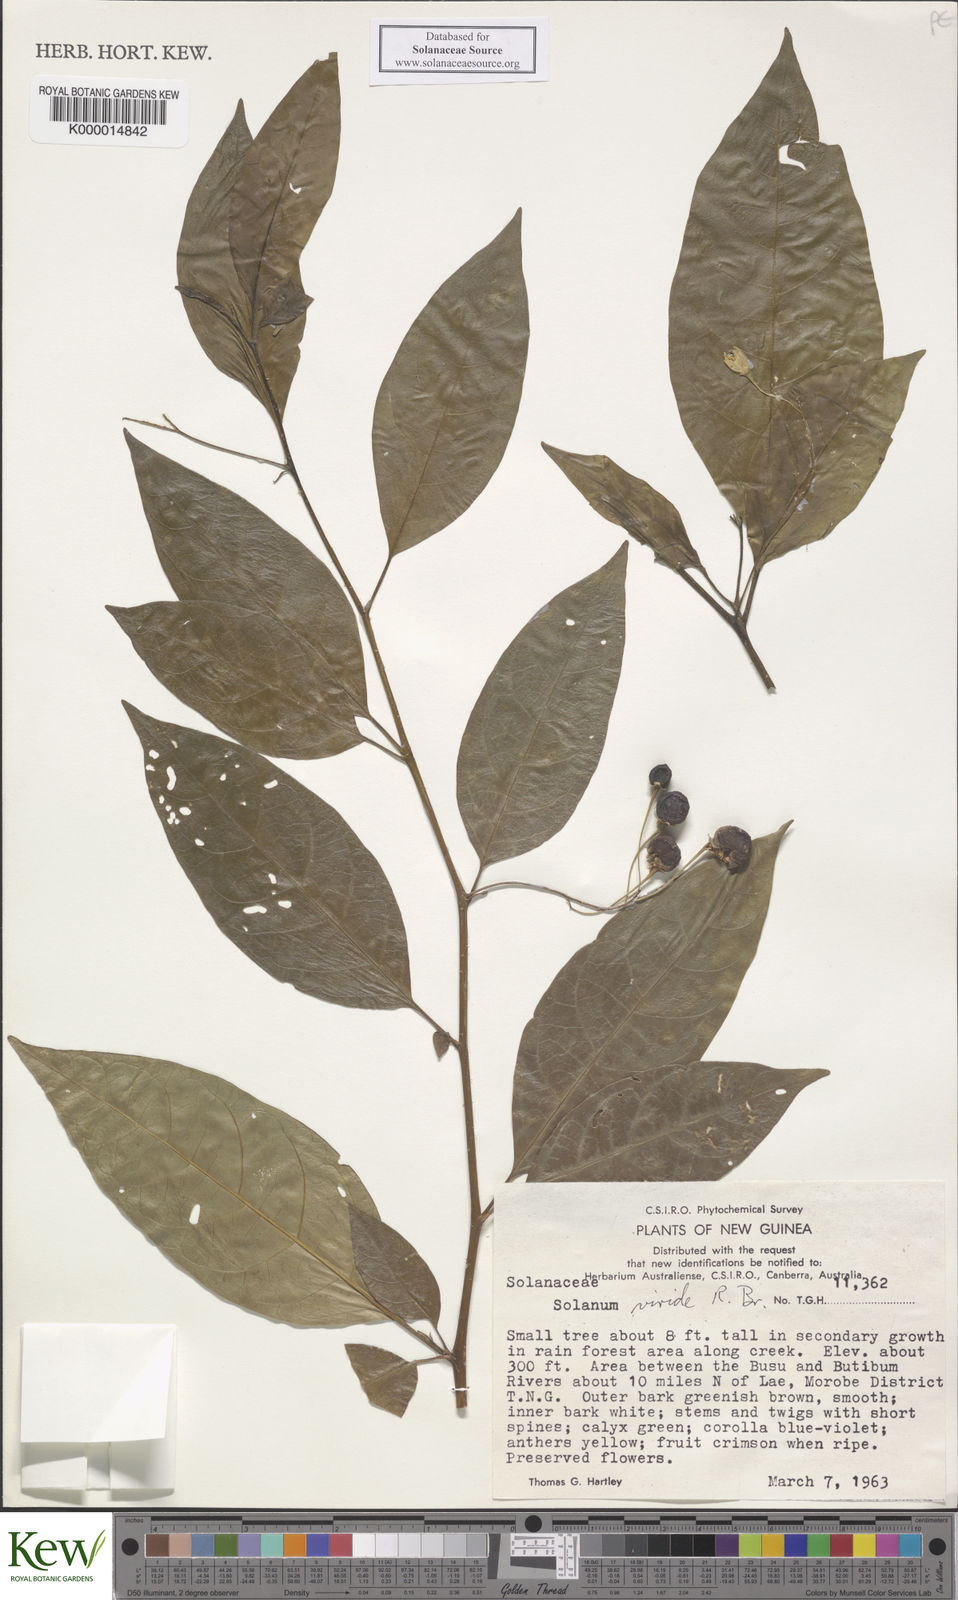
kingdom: Plantae
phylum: Tracheophyta
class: Magnoliopsida
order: Solanales
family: Solanaceae
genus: Solanum
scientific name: Solanum dallmannianum
